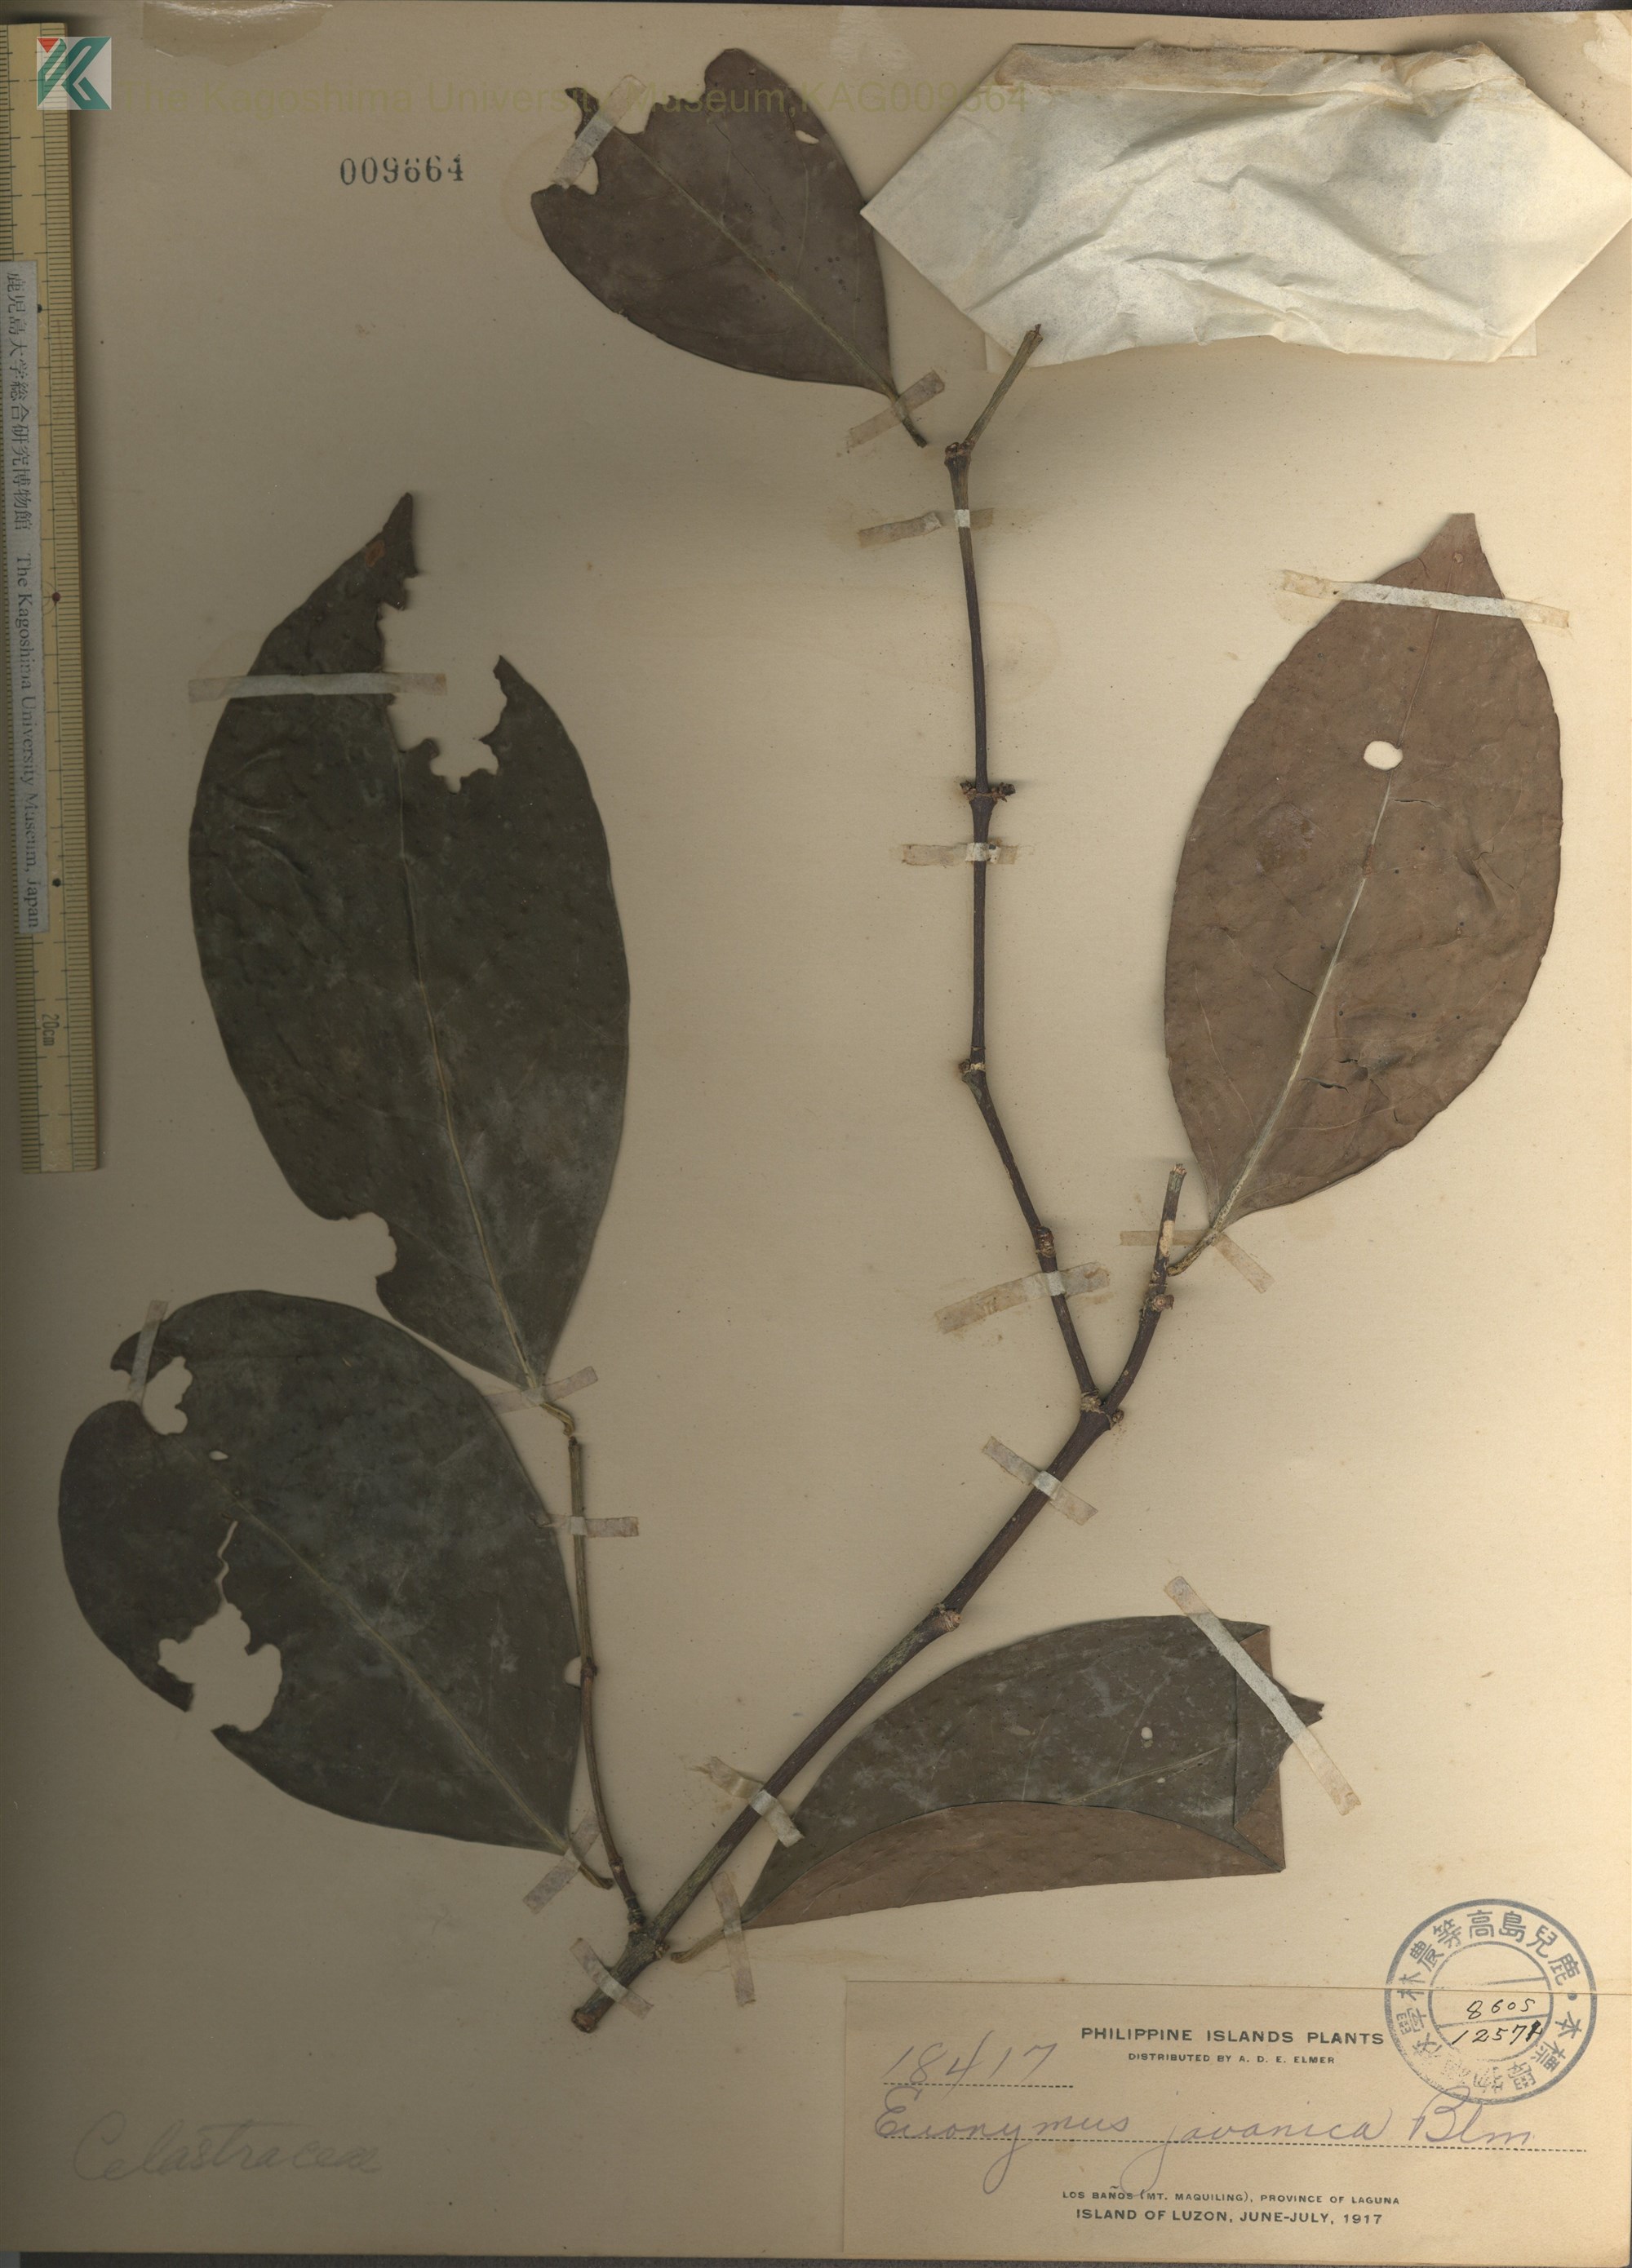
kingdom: Plantae
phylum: Tracheophyta
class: Magnoliopsida
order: Celastrales
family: Celastraceae
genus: Euonymus
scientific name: Euonymus indicus
